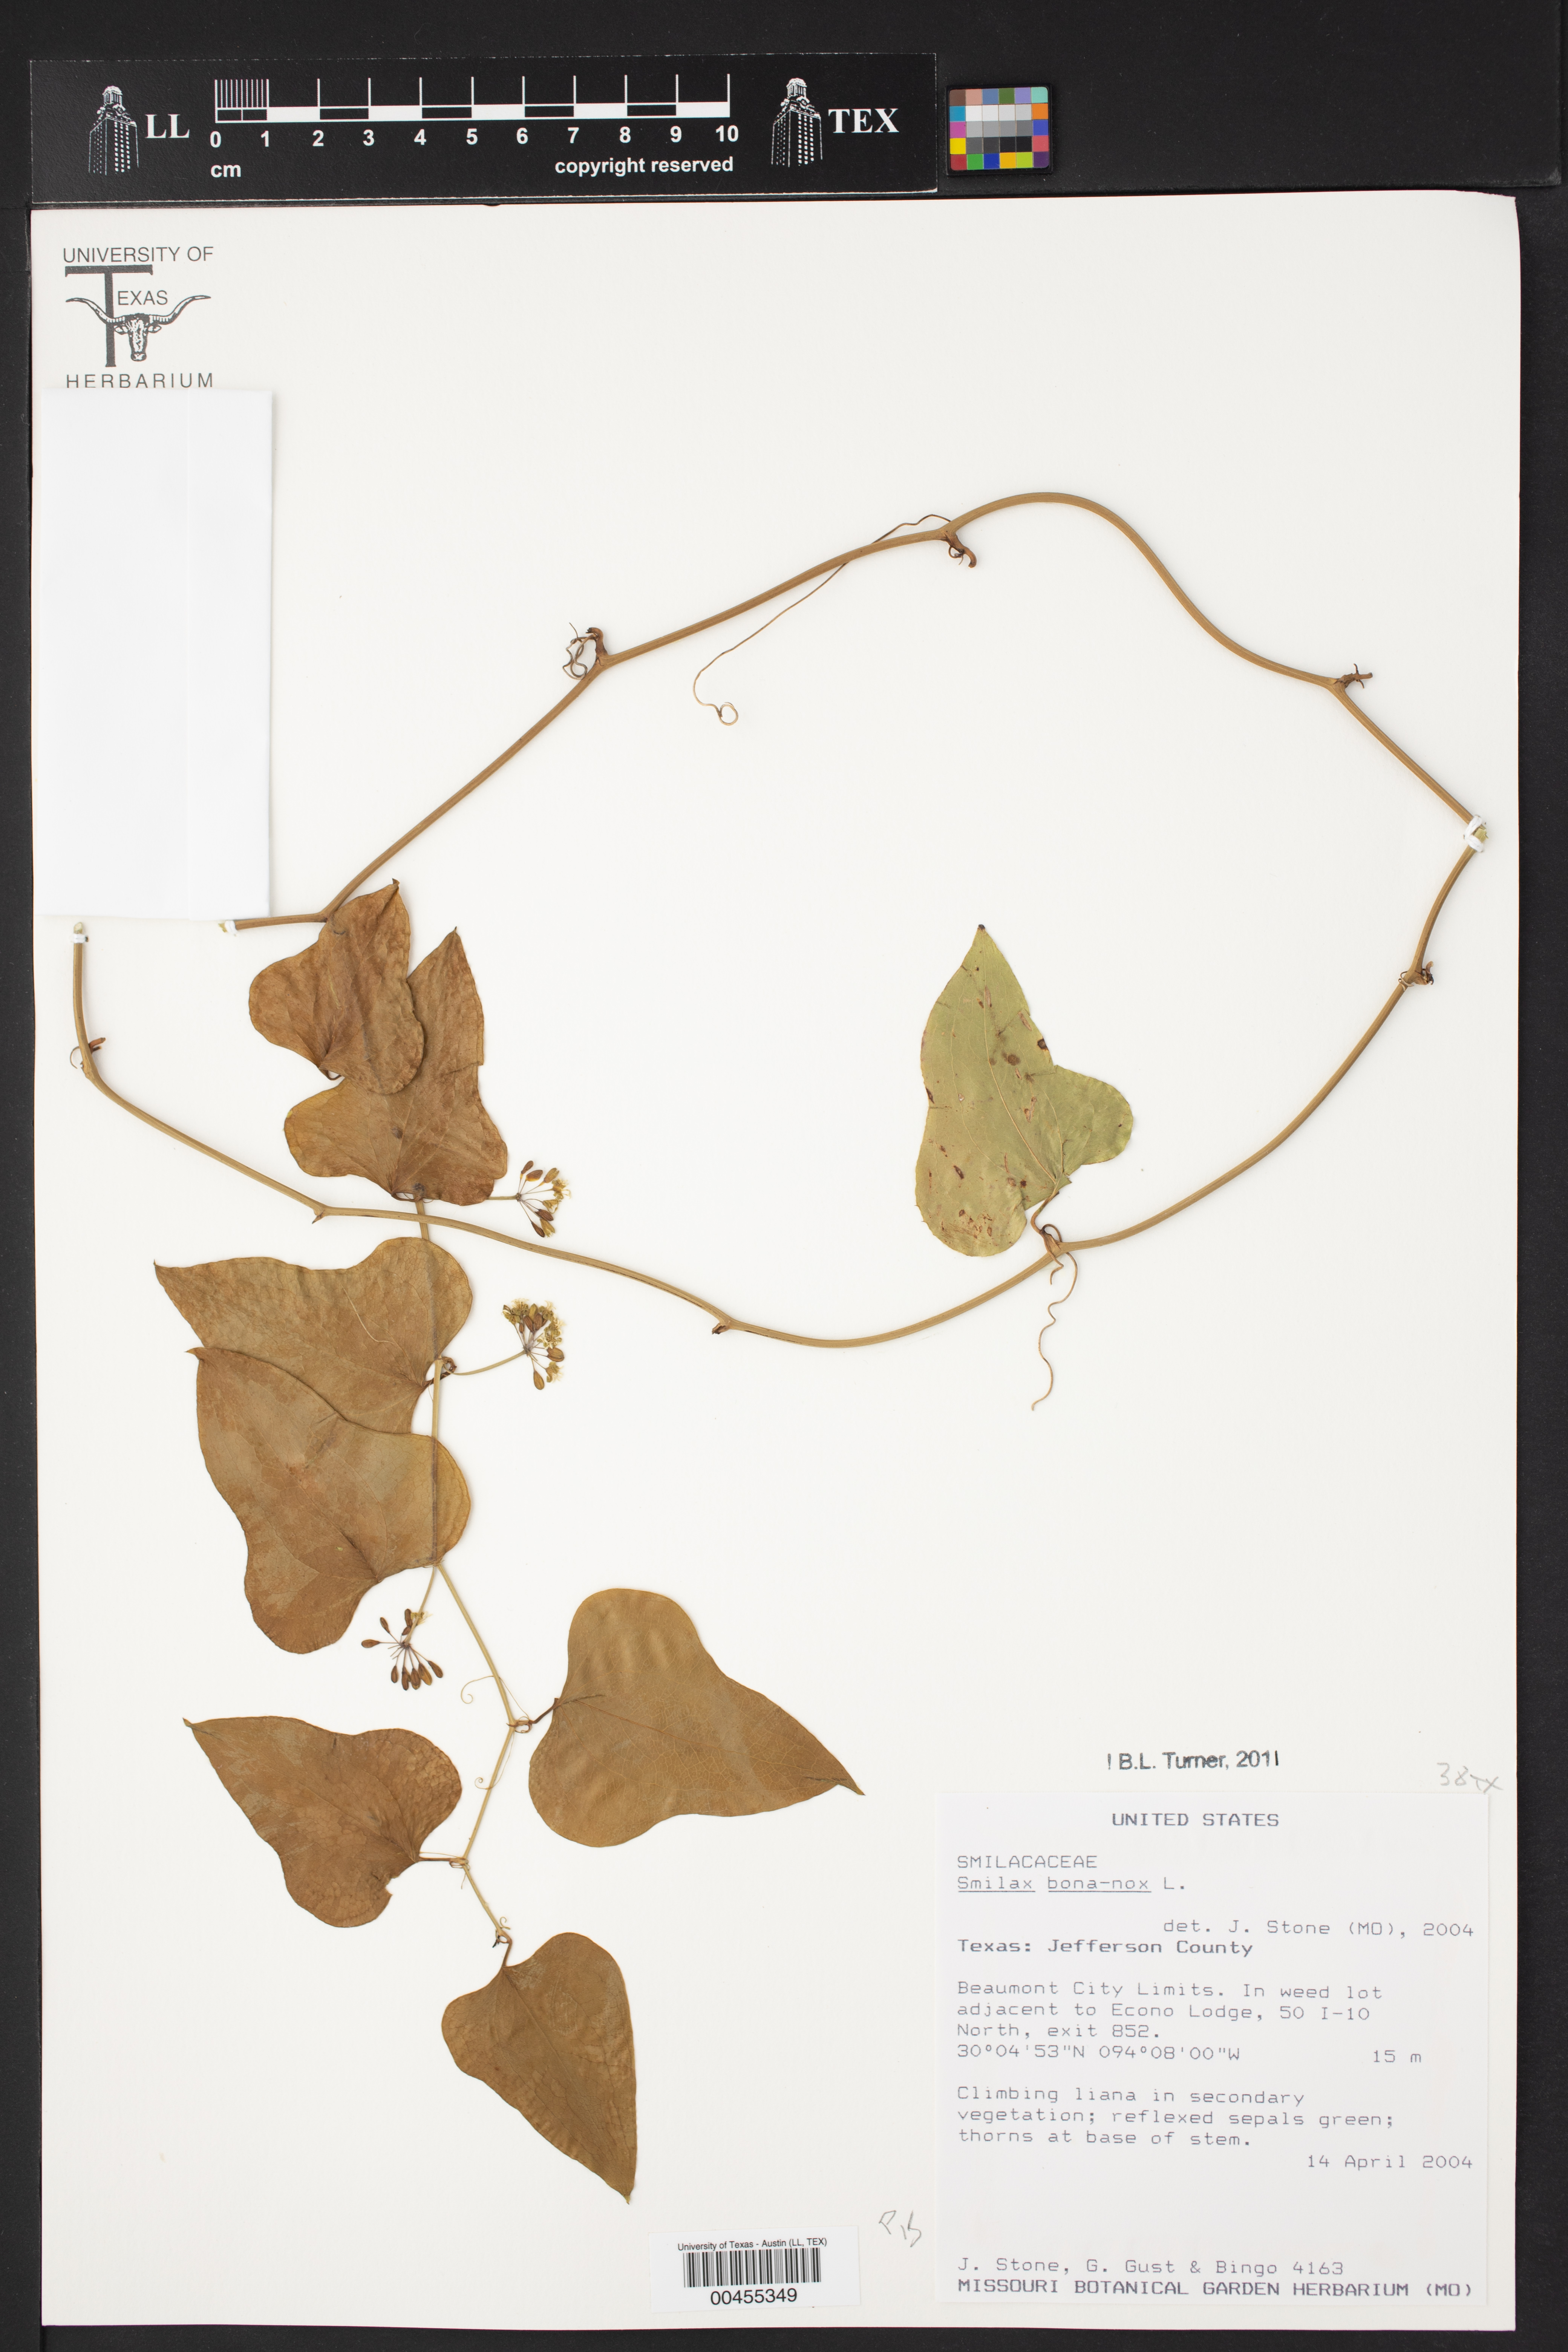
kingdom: Plantae
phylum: Tracheophyta
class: Liliopsida
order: Liliales
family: Smilacaceae
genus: Smilax
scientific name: Smilax bona-nox
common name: Catbrier
